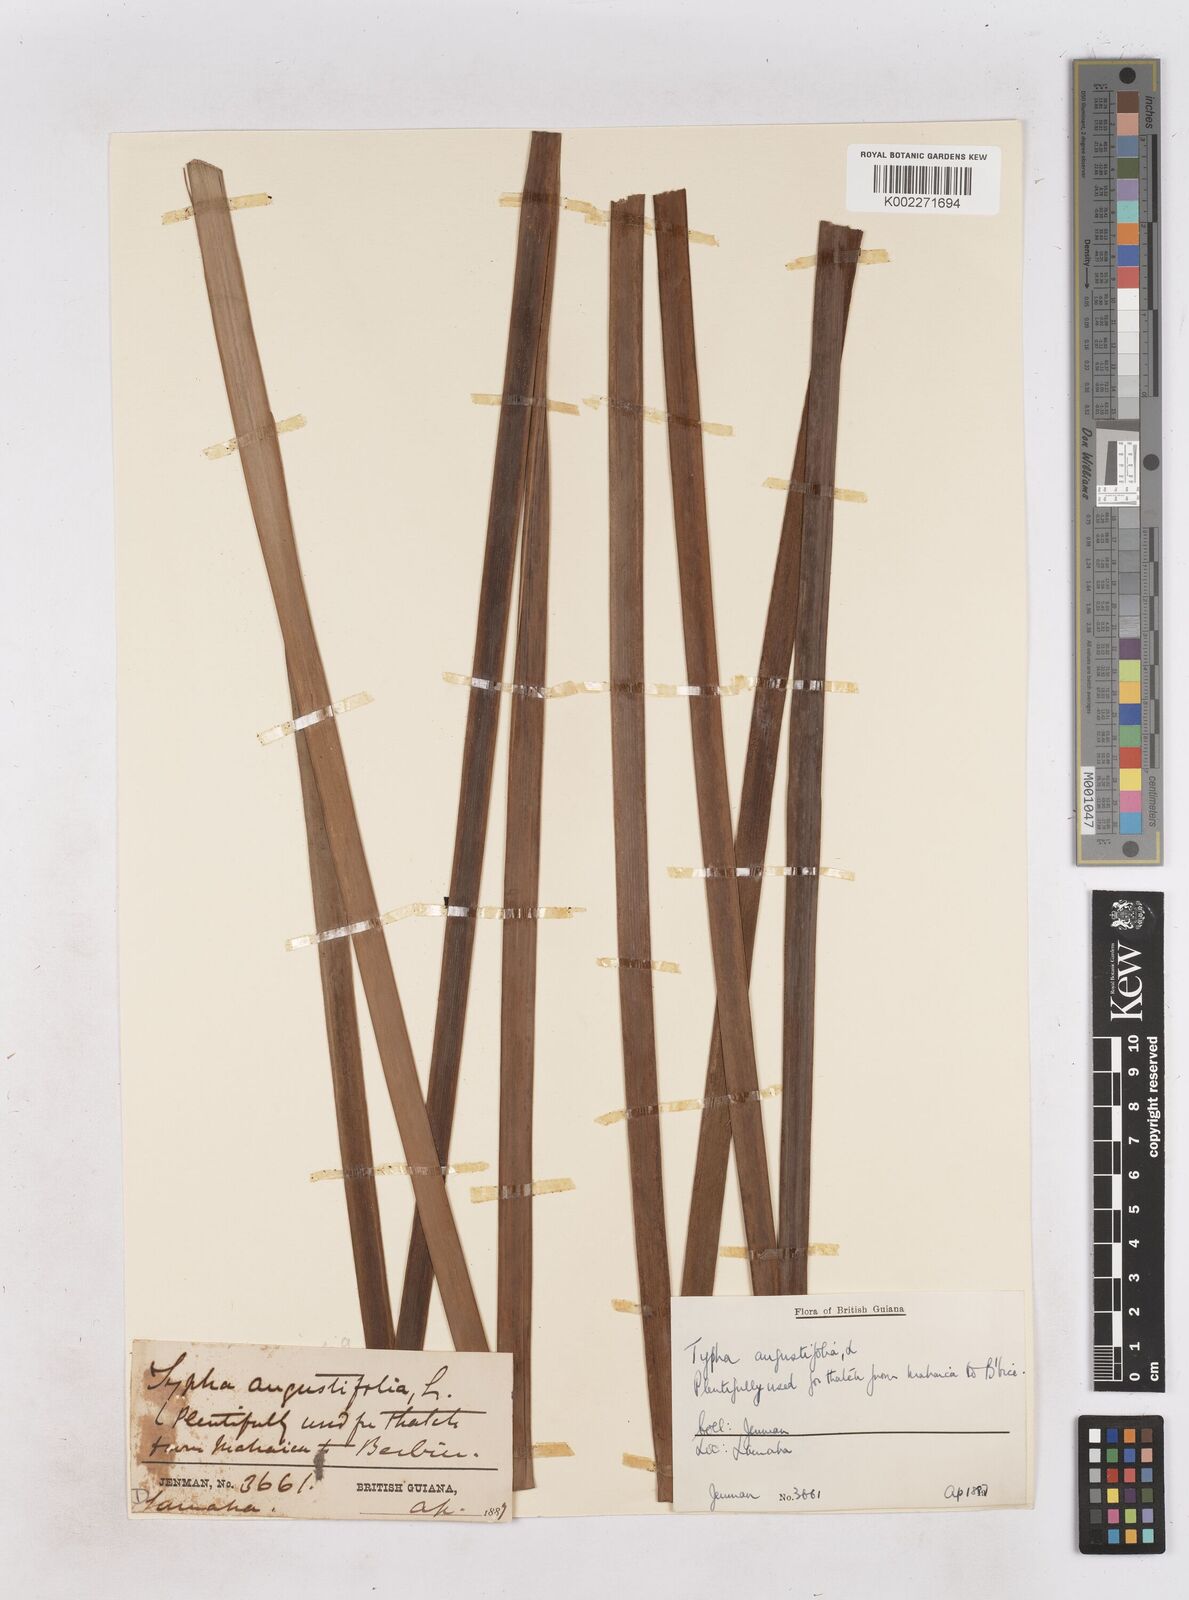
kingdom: Plantae
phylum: Tracheophyta
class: Liliopsida
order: Poales
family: Typhaceae
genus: Typha
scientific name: Typha domingensis
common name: Southern cattail
